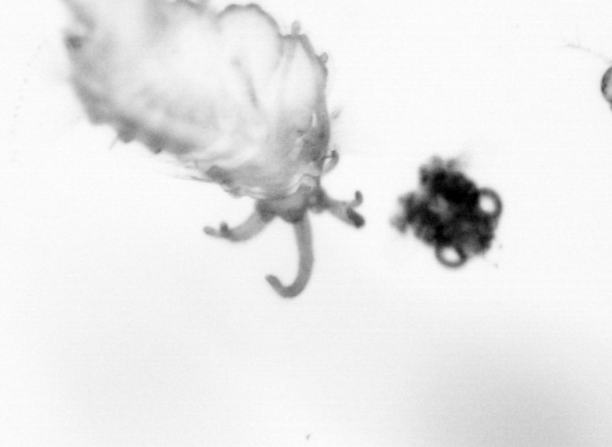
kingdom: Animalia
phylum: Arthropoda
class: Copepoda
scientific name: Copepoda
